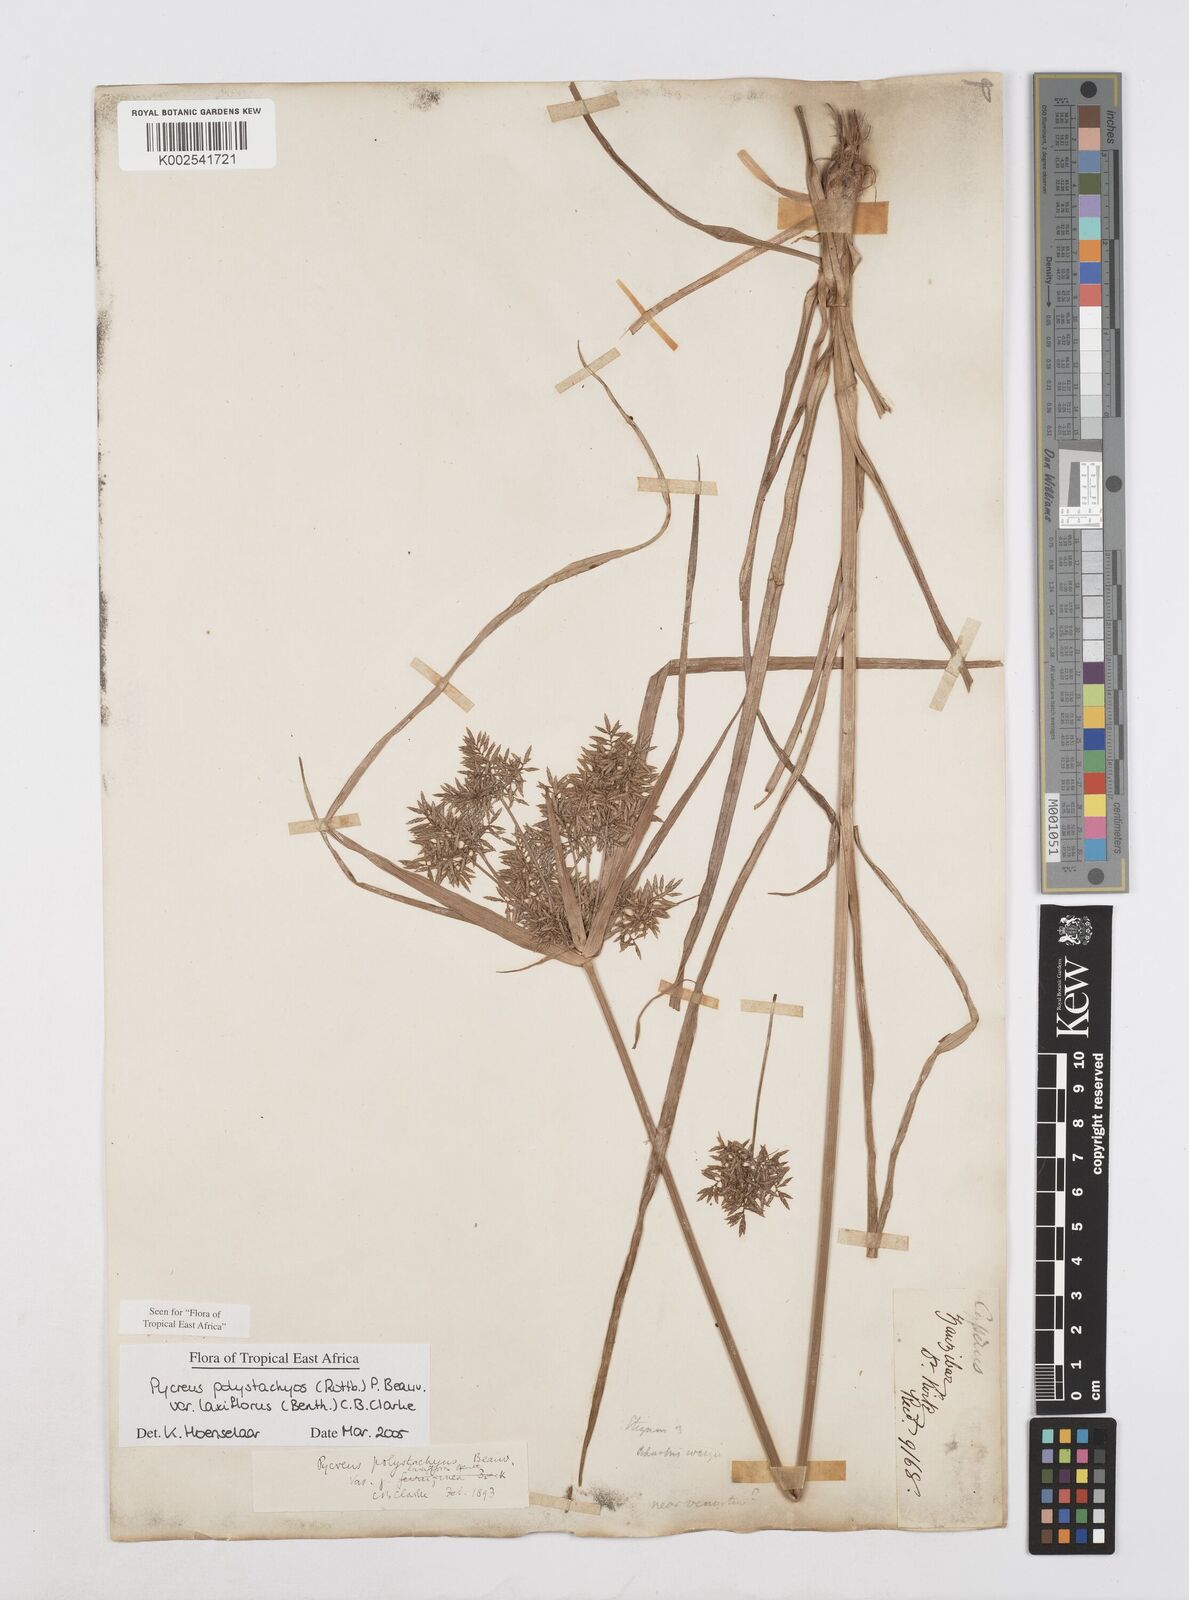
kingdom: Plantae
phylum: Tracheophyta
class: Liliopsida
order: Poales
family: Cyperaceae
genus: Cyperus
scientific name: Cyperus polystachyos
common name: Bunchy flat sedge
